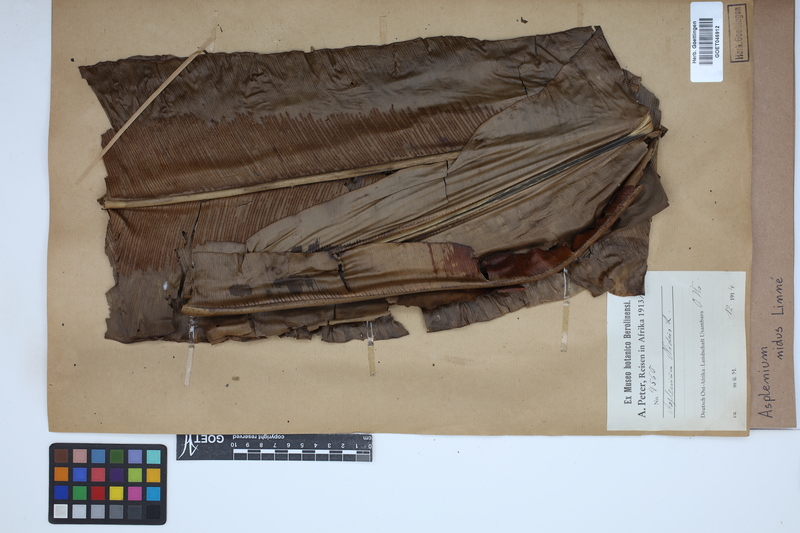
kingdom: Plantae
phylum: Tracheophyta
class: Polypodiopsida
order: Polypodiales
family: Aspleniaceae
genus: Asplenium
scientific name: Asplenium nidus
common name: Bird's-nest fern
